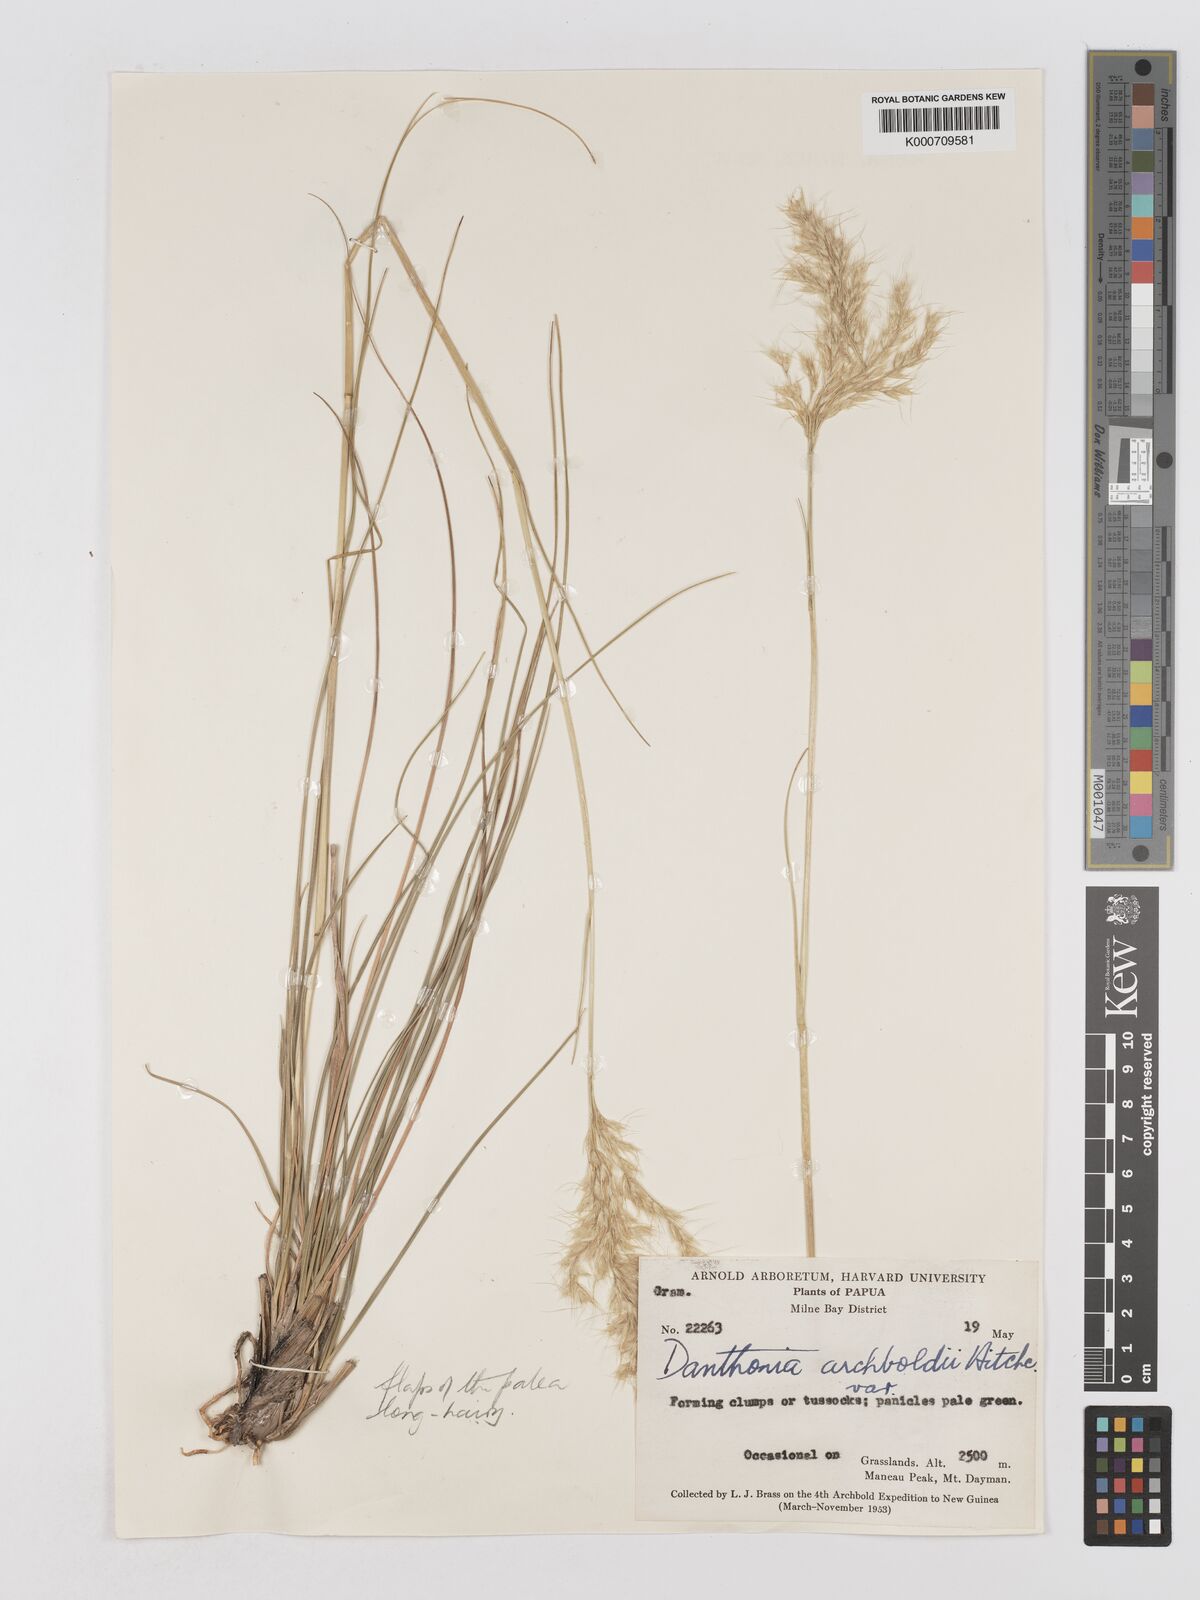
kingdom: Plantae
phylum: Tracheophyta
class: Liliopsida
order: Poales
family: Poaceae
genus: Chimaerochloa
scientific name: Chimaerochloa archboldii
